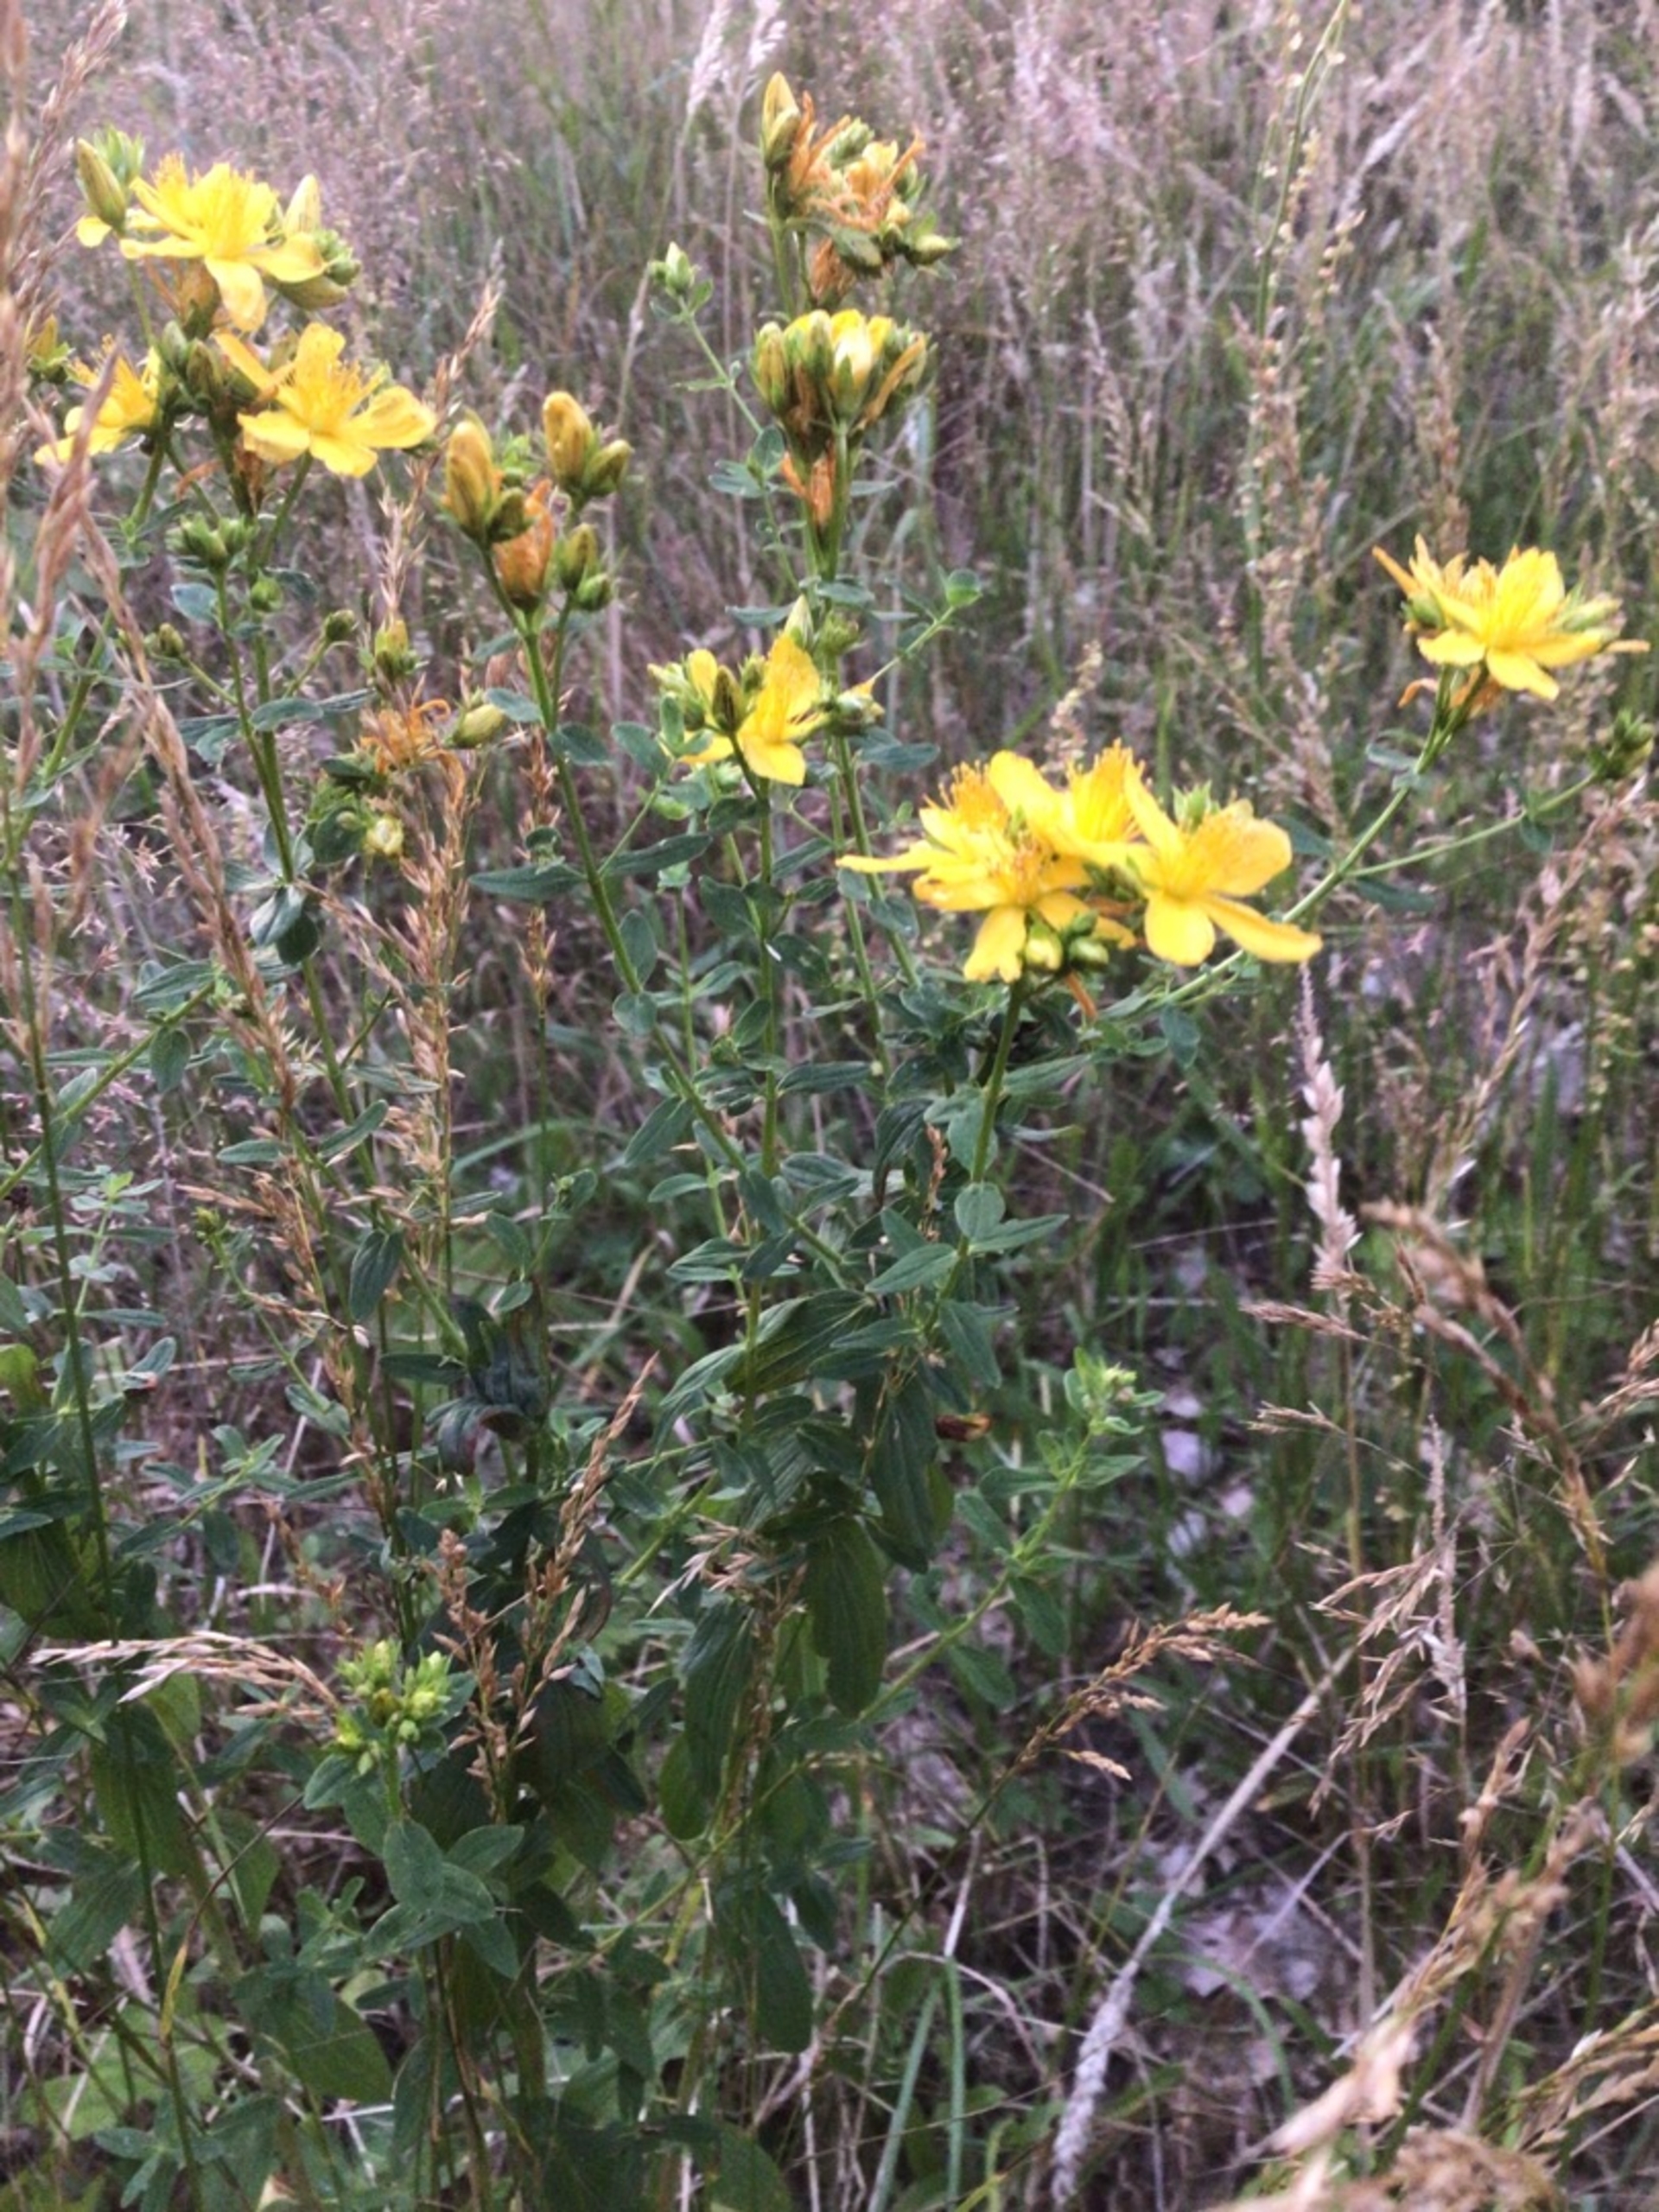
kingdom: Plantae
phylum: Tracheophyta
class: Magnoliopsida
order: Malpighiales
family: Hypericaceae
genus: Hypericum
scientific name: Hypericum perforatum
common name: Prikbladet perikon
